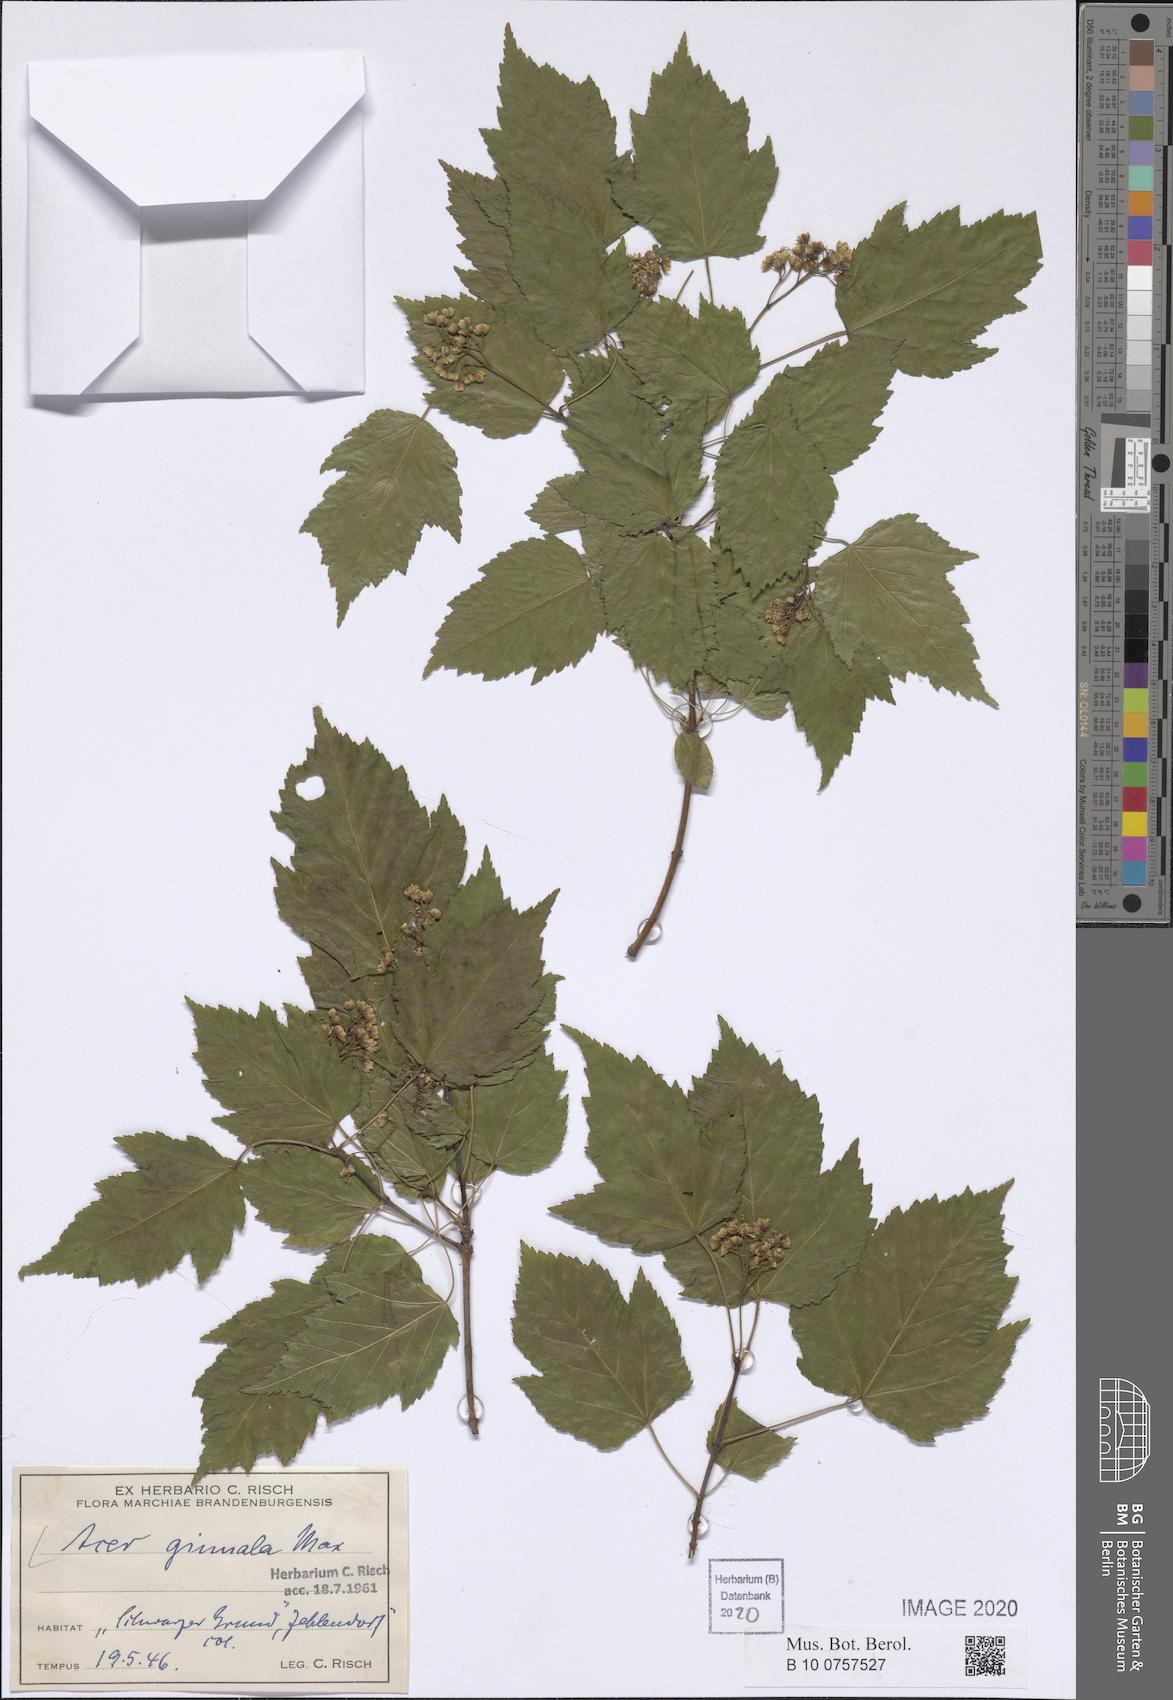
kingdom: Plantae
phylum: Tracheophyta
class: Magnoliopsida
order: Sapindales
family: Sapindaceae
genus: Acer
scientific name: Acer tataricum
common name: Tartar maple
